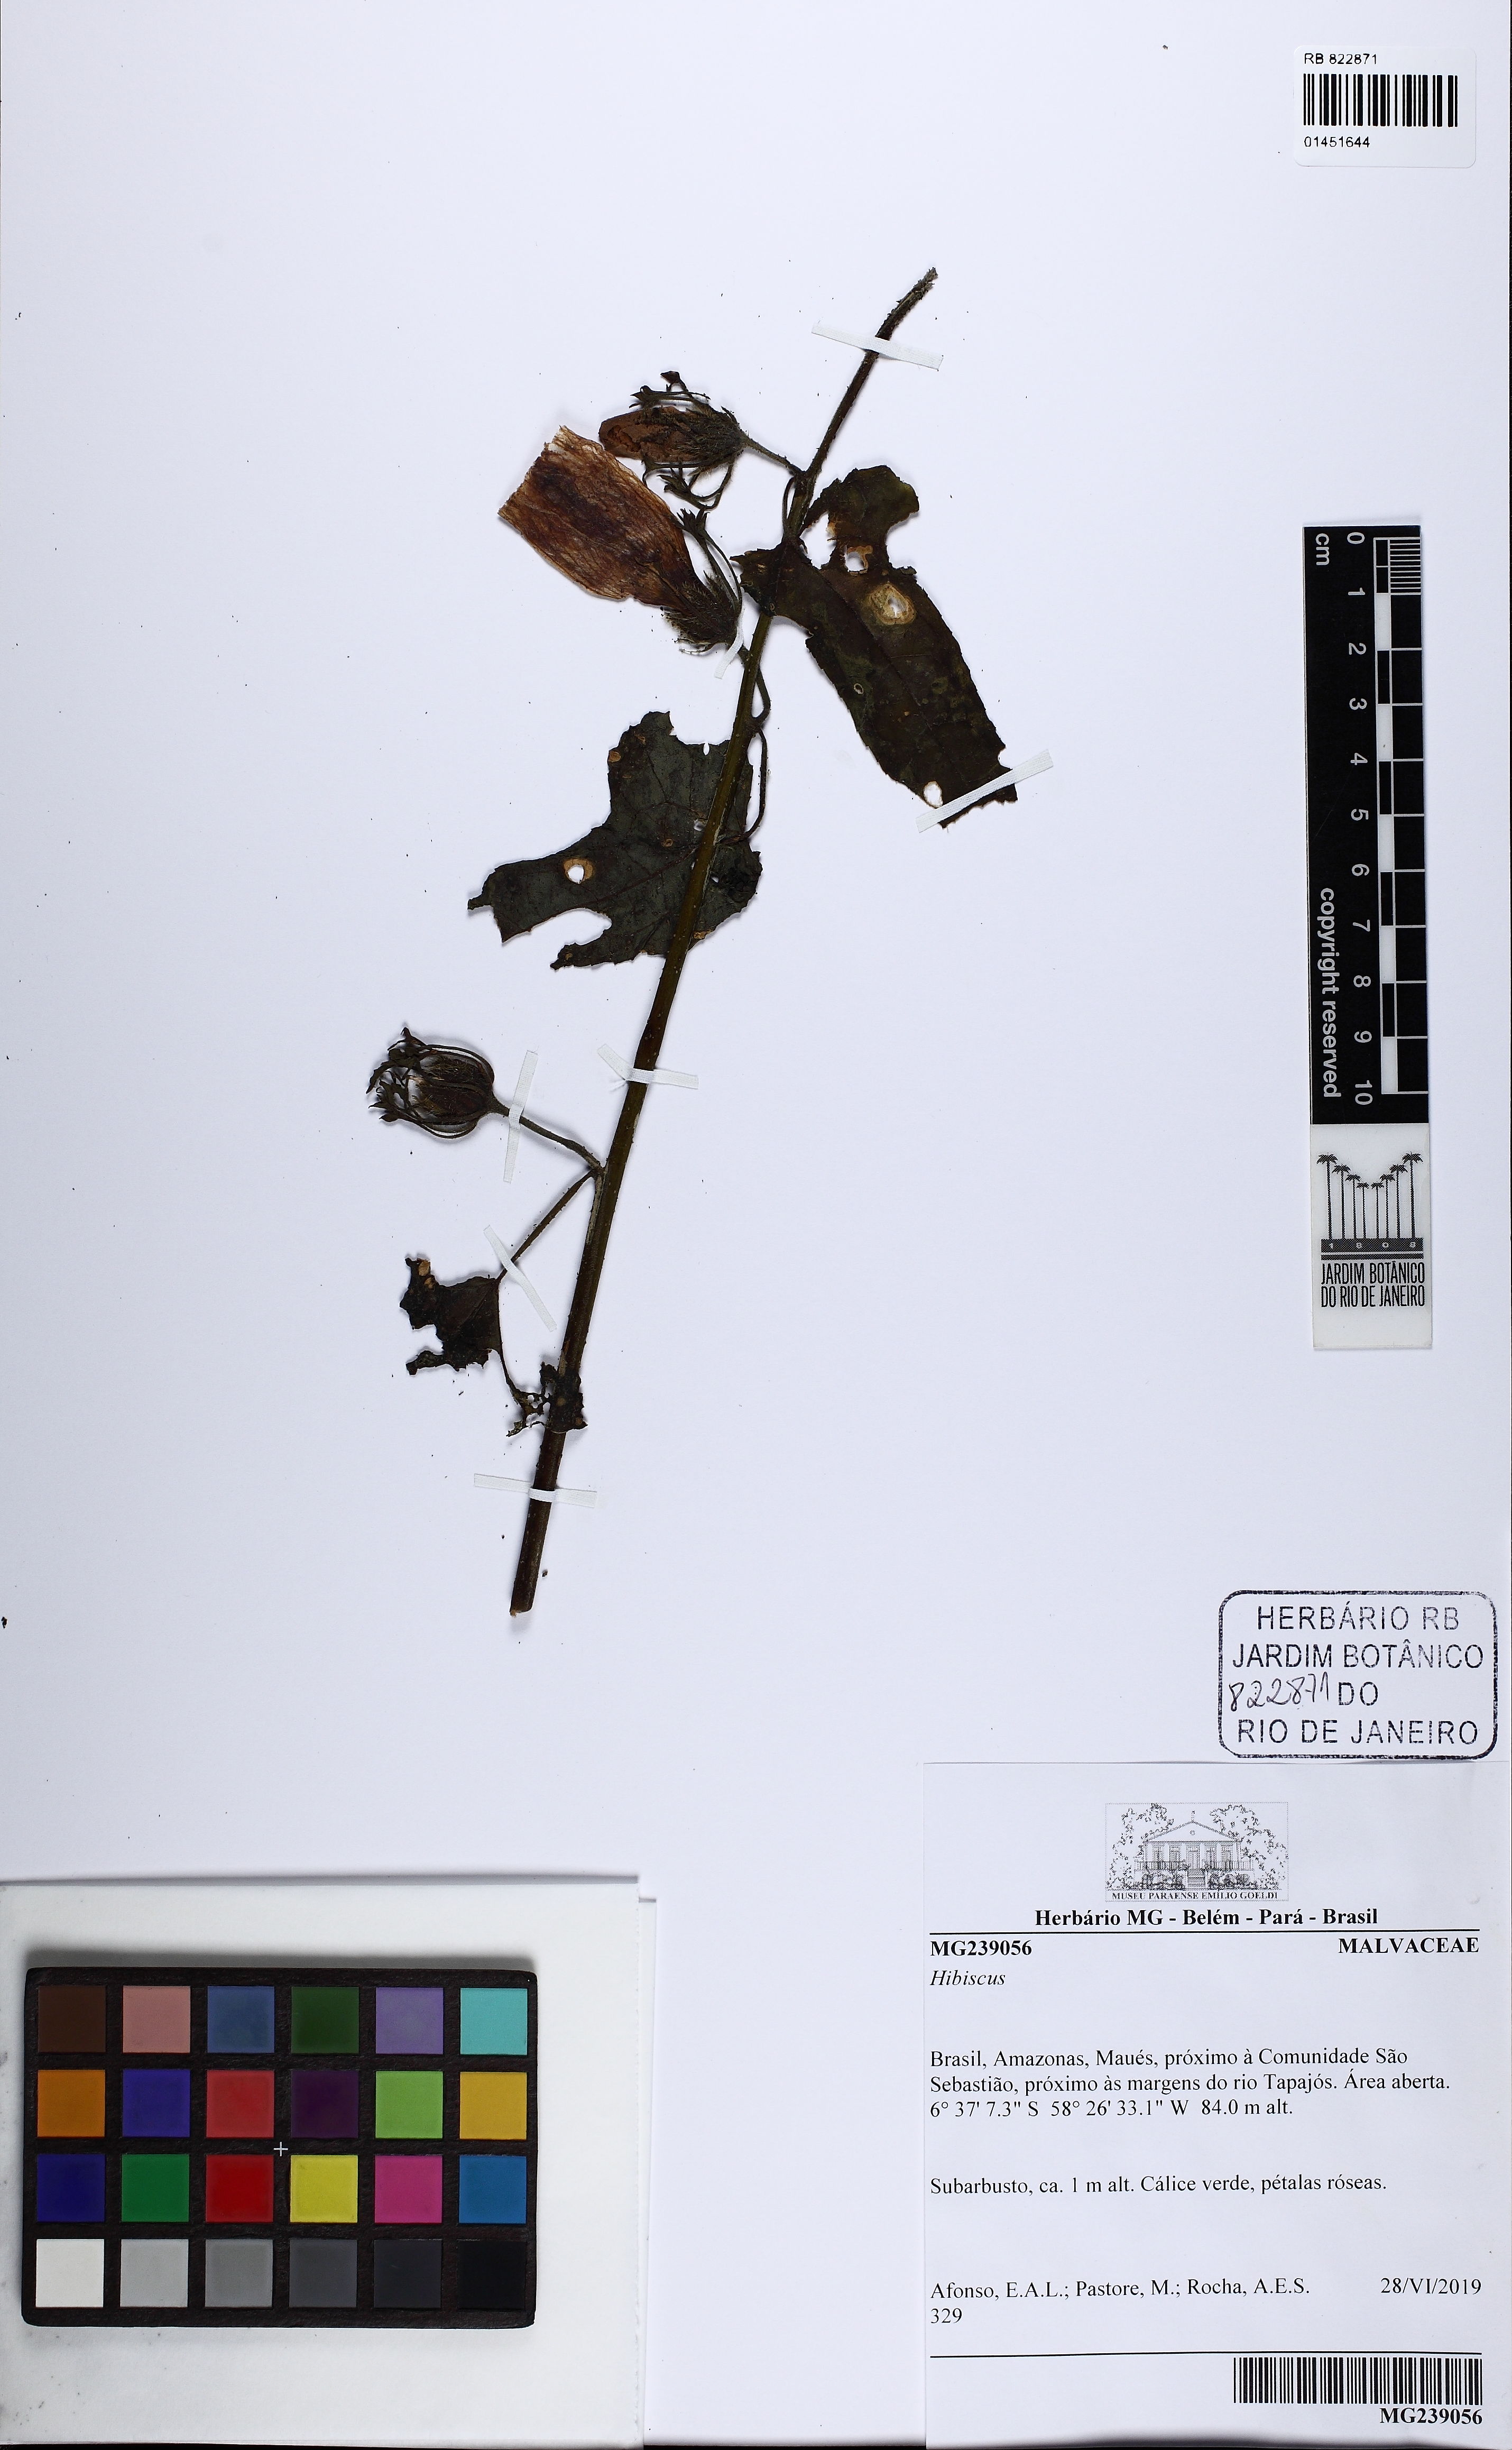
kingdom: Plantae
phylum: Tracheophyta
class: Magnoliopsida
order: Malvales
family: Malvaceae
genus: Hibiscus
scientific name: Hibiscus
